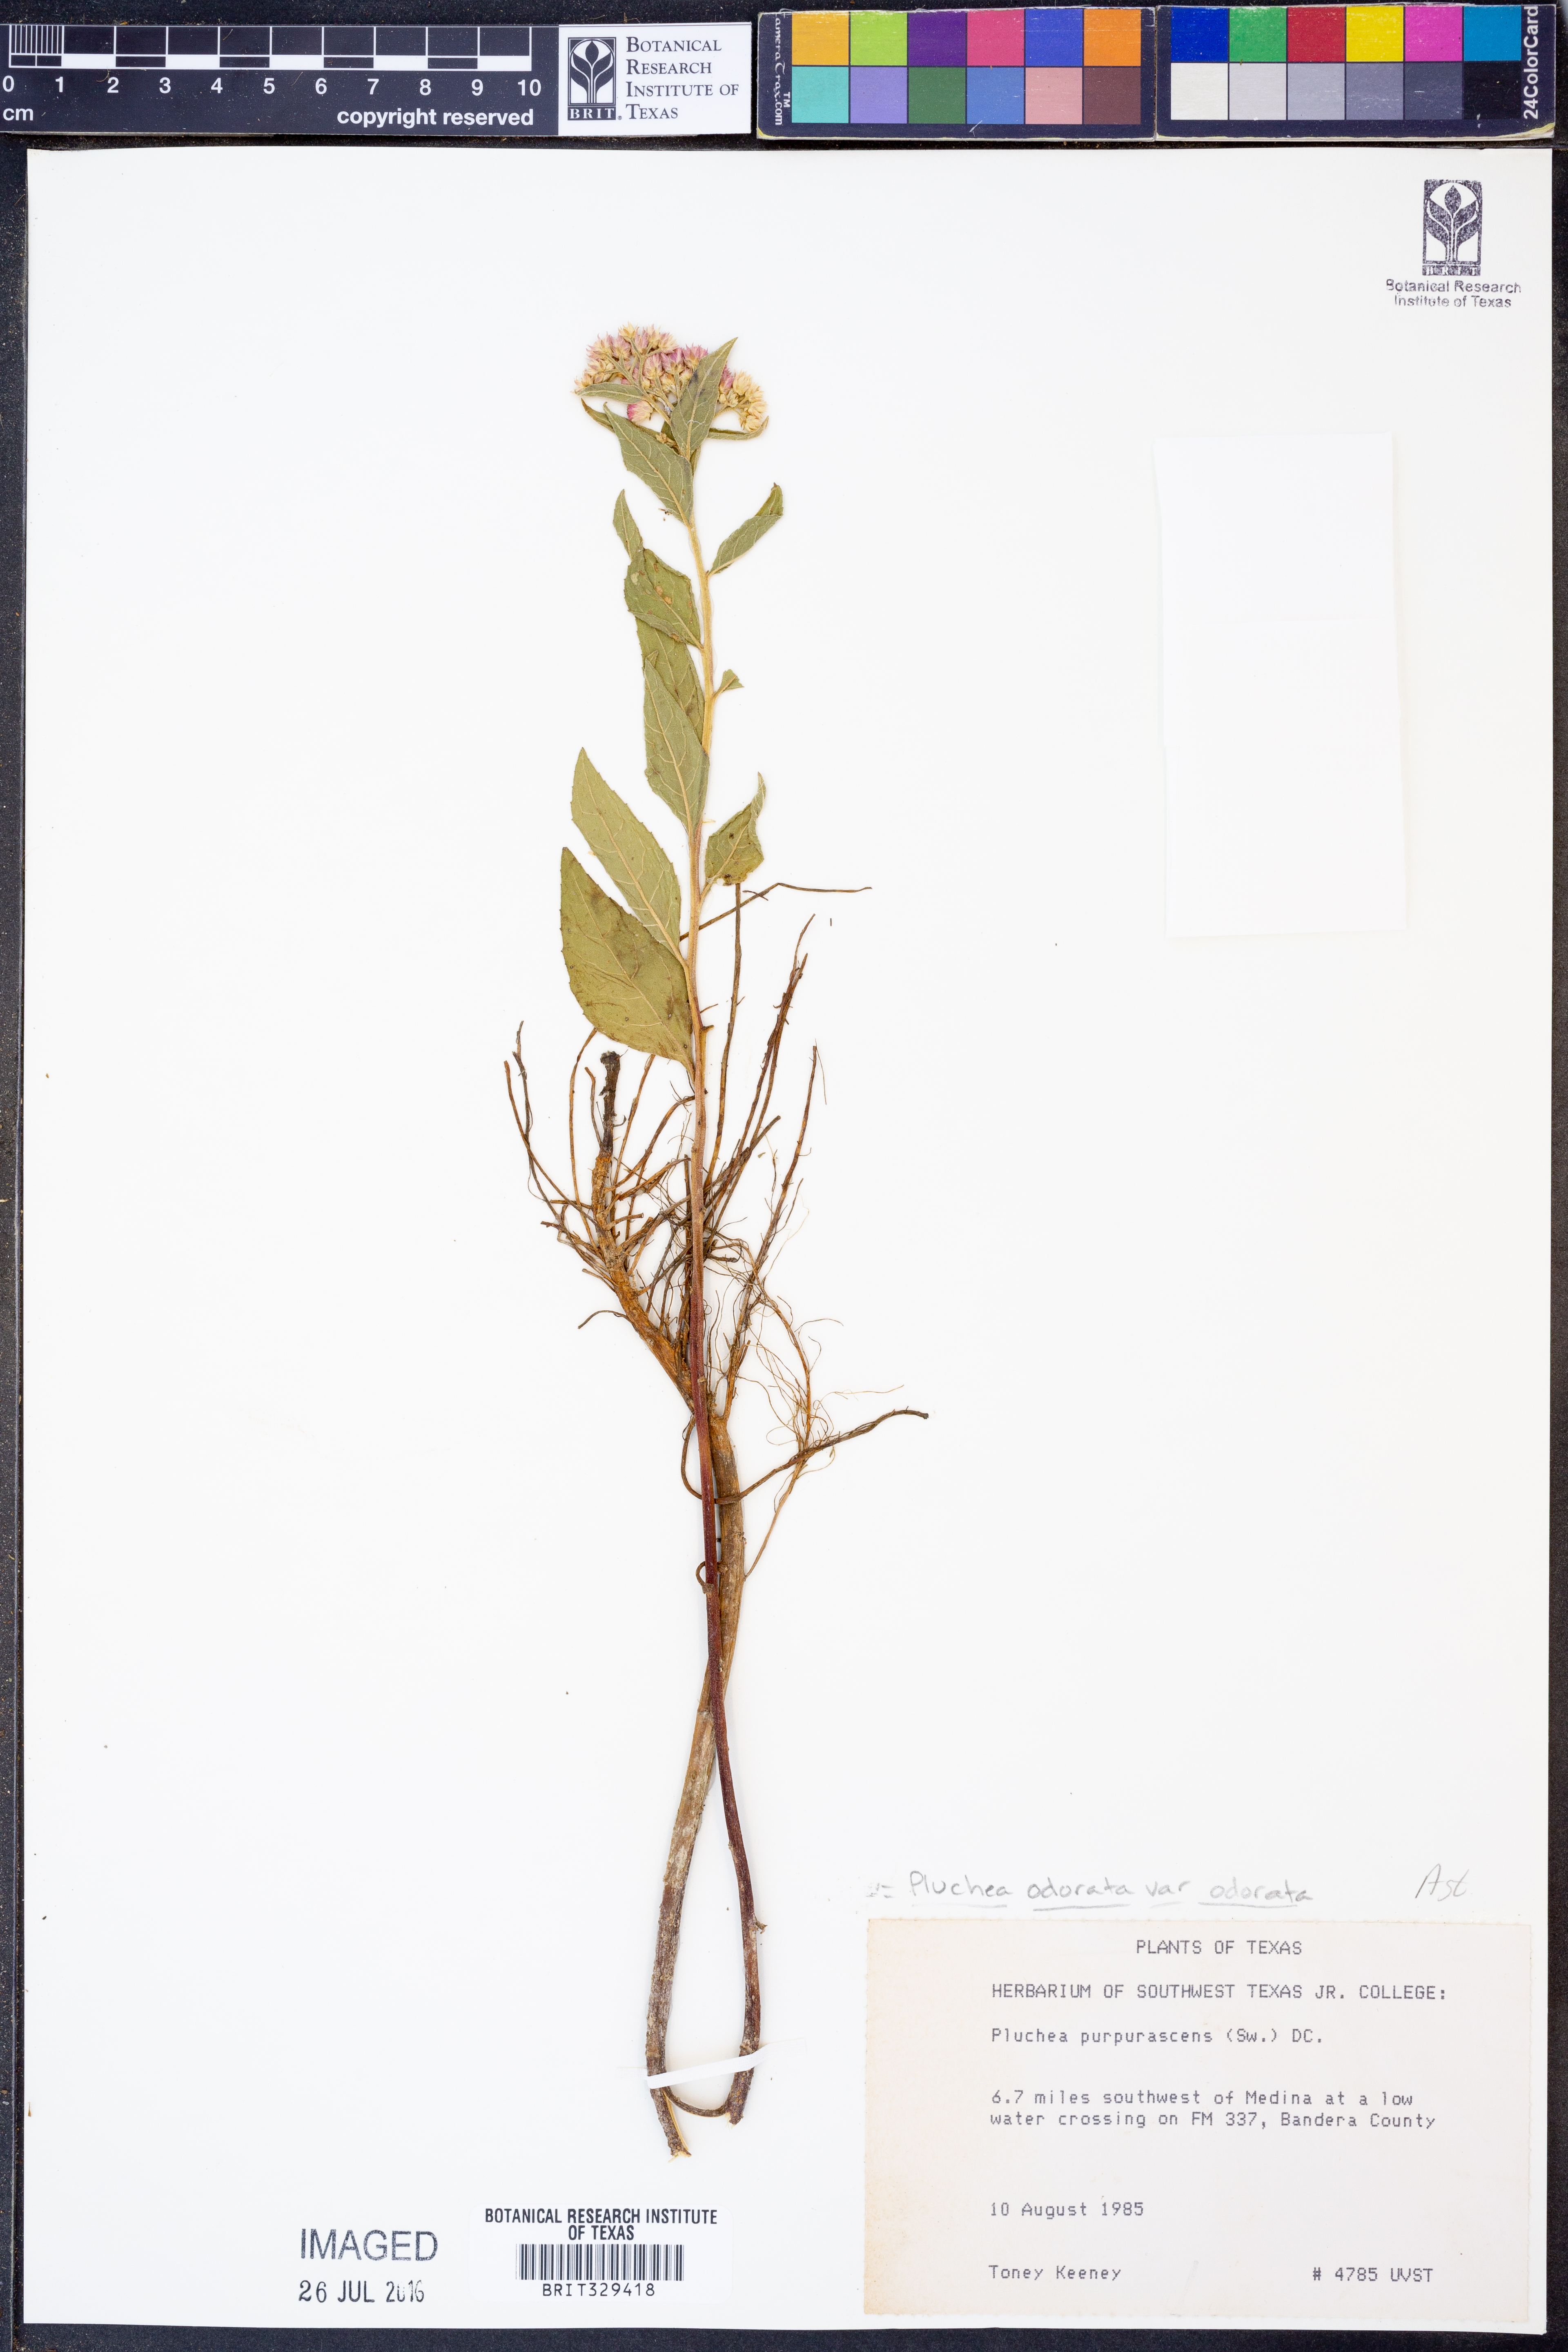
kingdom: Plantae
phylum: Tracheophyta
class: Magnoliopsida
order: Asterales
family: Asteraceae
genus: Pluchea
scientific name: Pluchea odorata
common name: Saltmarsh fleabane
